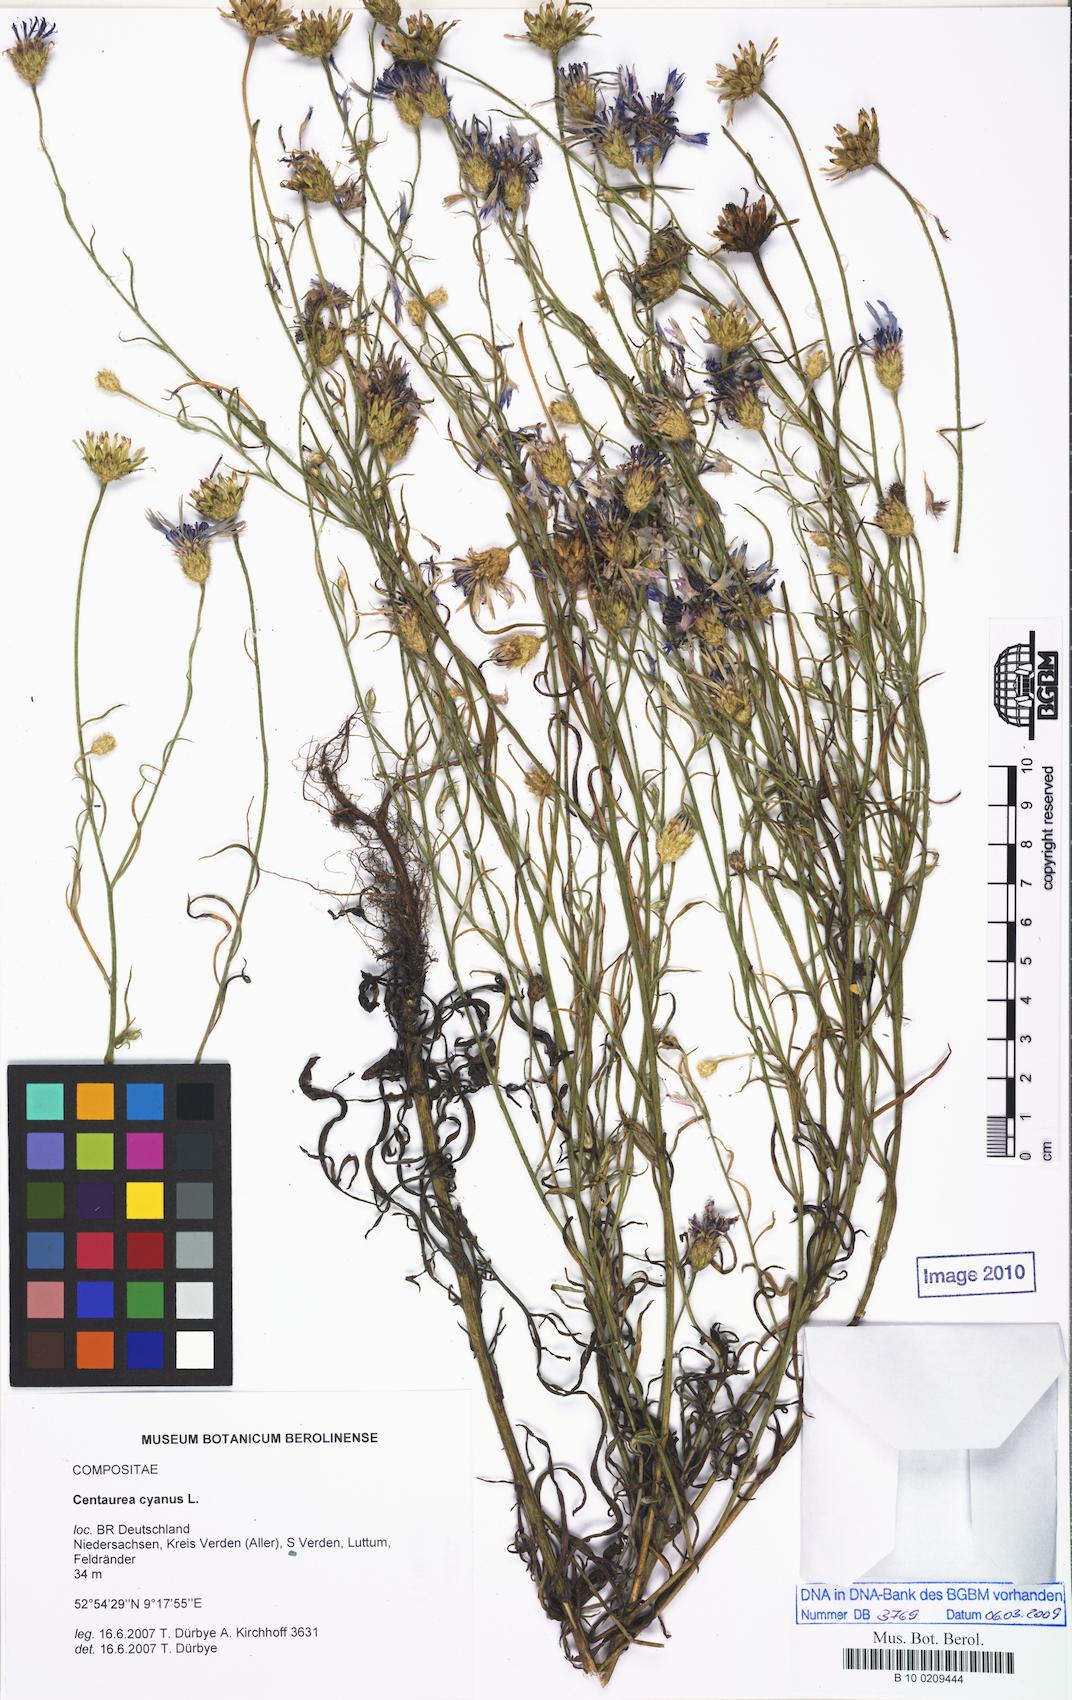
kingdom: Plantae
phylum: Tracheophyta
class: Magnoliopsida
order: Asterales
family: Asteraceae
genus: Centaurea
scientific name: Centaurea cyanus
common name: Cornflower
